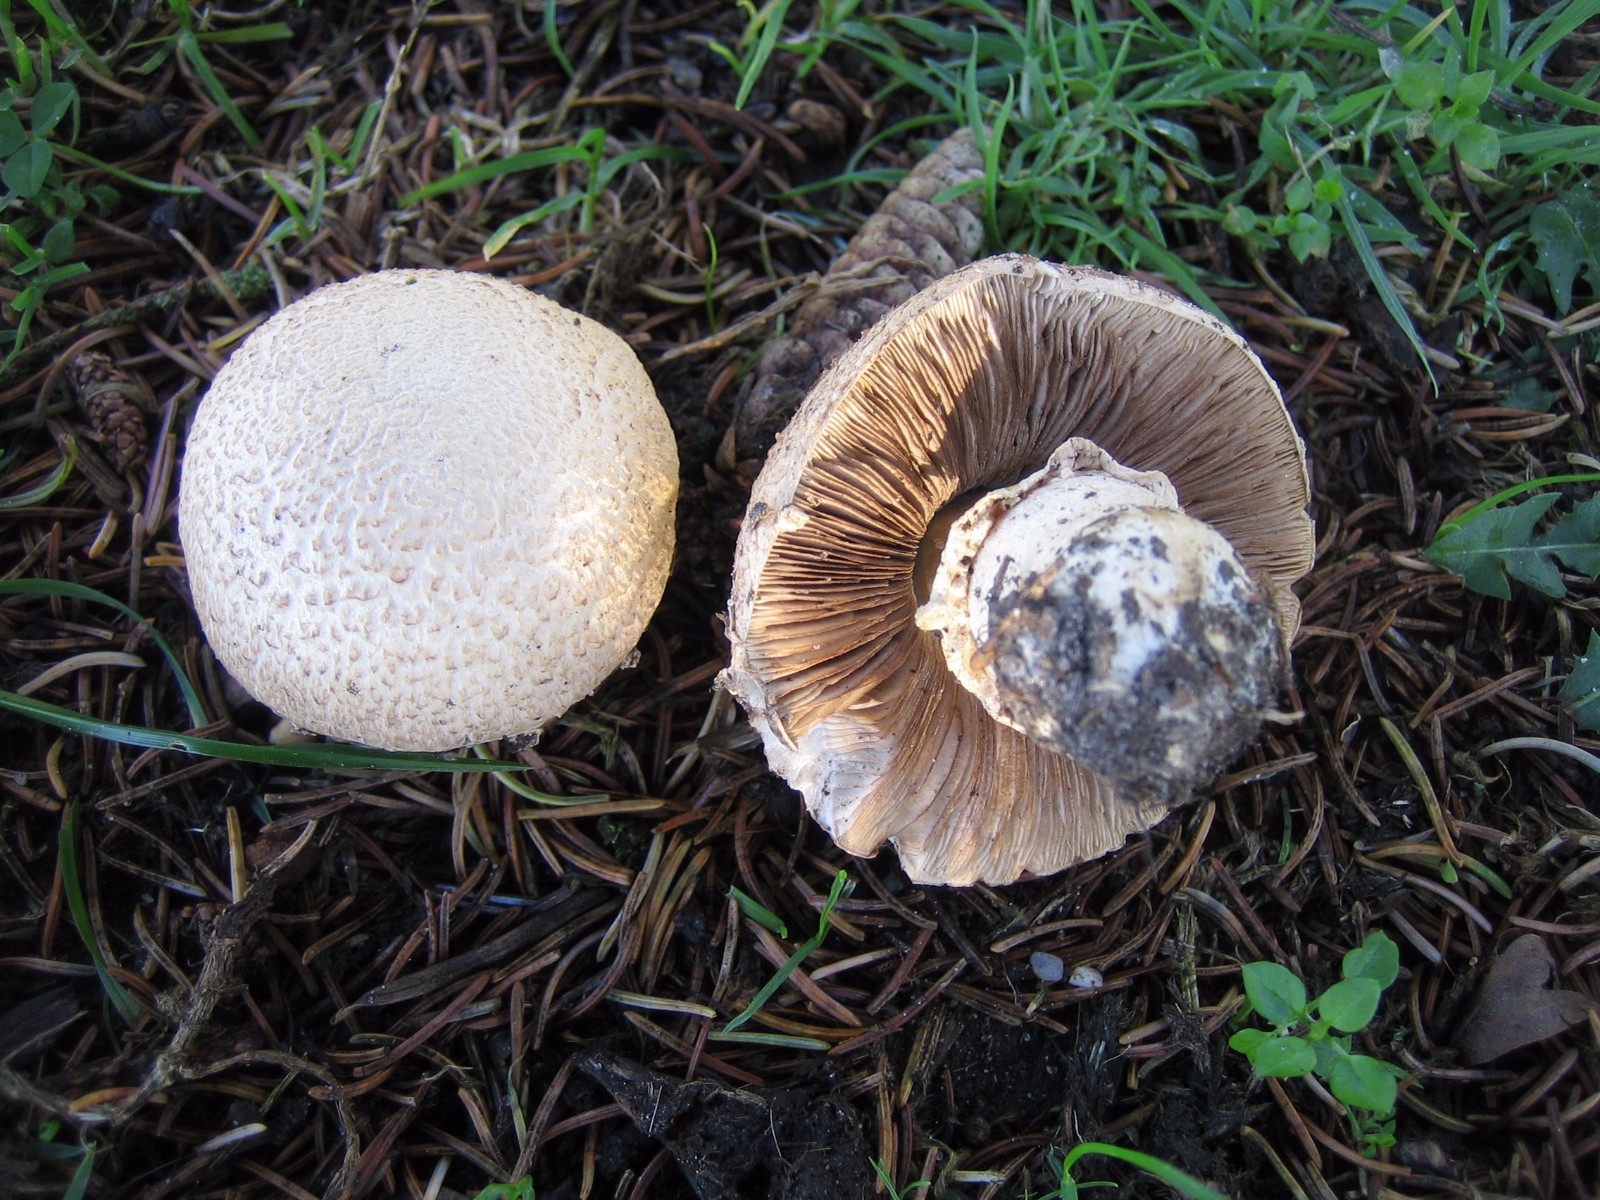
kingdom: Fungi
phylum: Basidiomycota
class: Agaricomycetes
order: Agaricales
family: Agaricaceae
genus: Agaricus
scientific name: Agaricus
